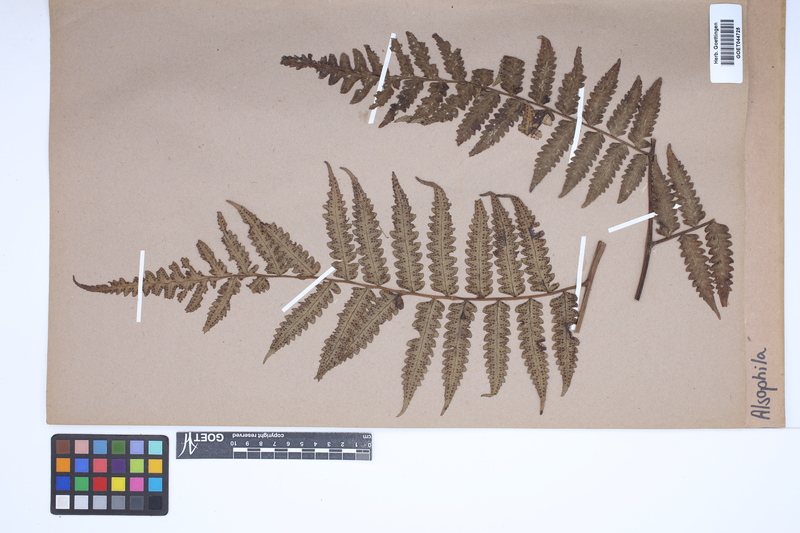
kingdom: Plantae
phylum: Tracheophyta
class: Polypodiopsida
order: Cyatheales
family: Cyatheaceae
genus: Alsophila
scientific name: Alsophila
